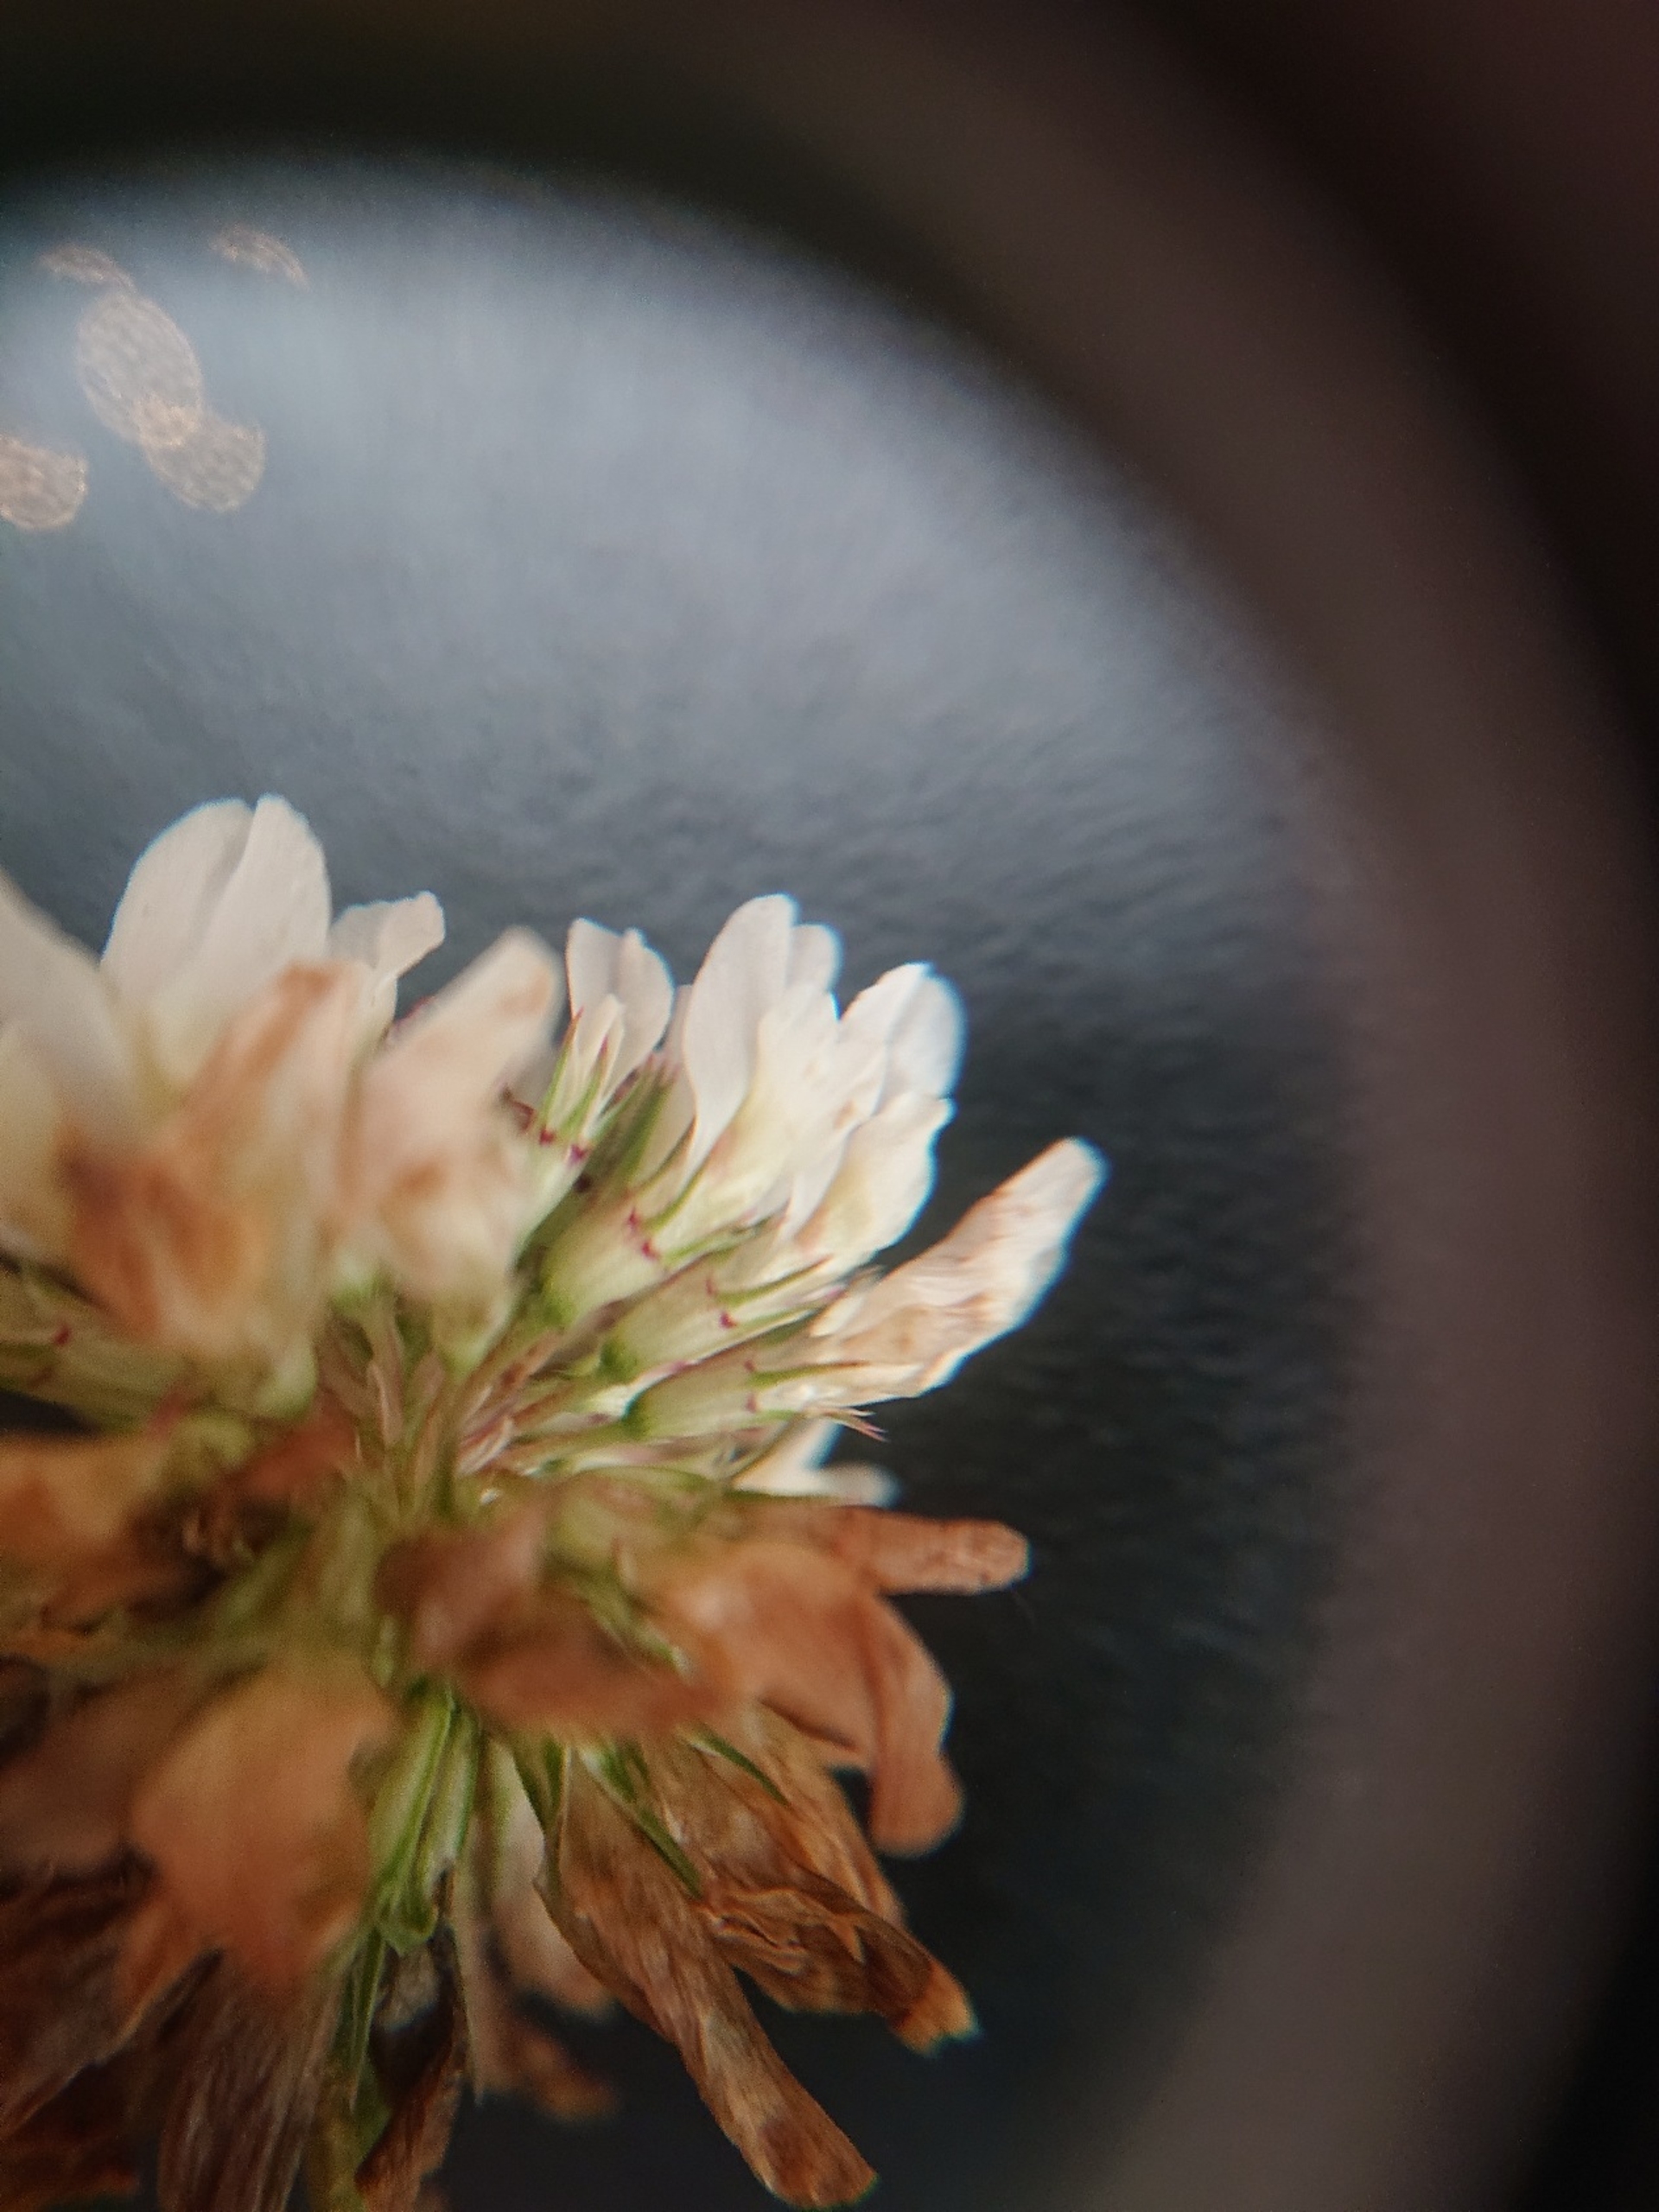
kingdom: Plantae
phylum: Tracheophyta
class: Magnoliopsida
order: Fabales
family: Fabaceae
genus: Trifolium
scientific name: Trifolium repens
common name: Hvid-kløver
